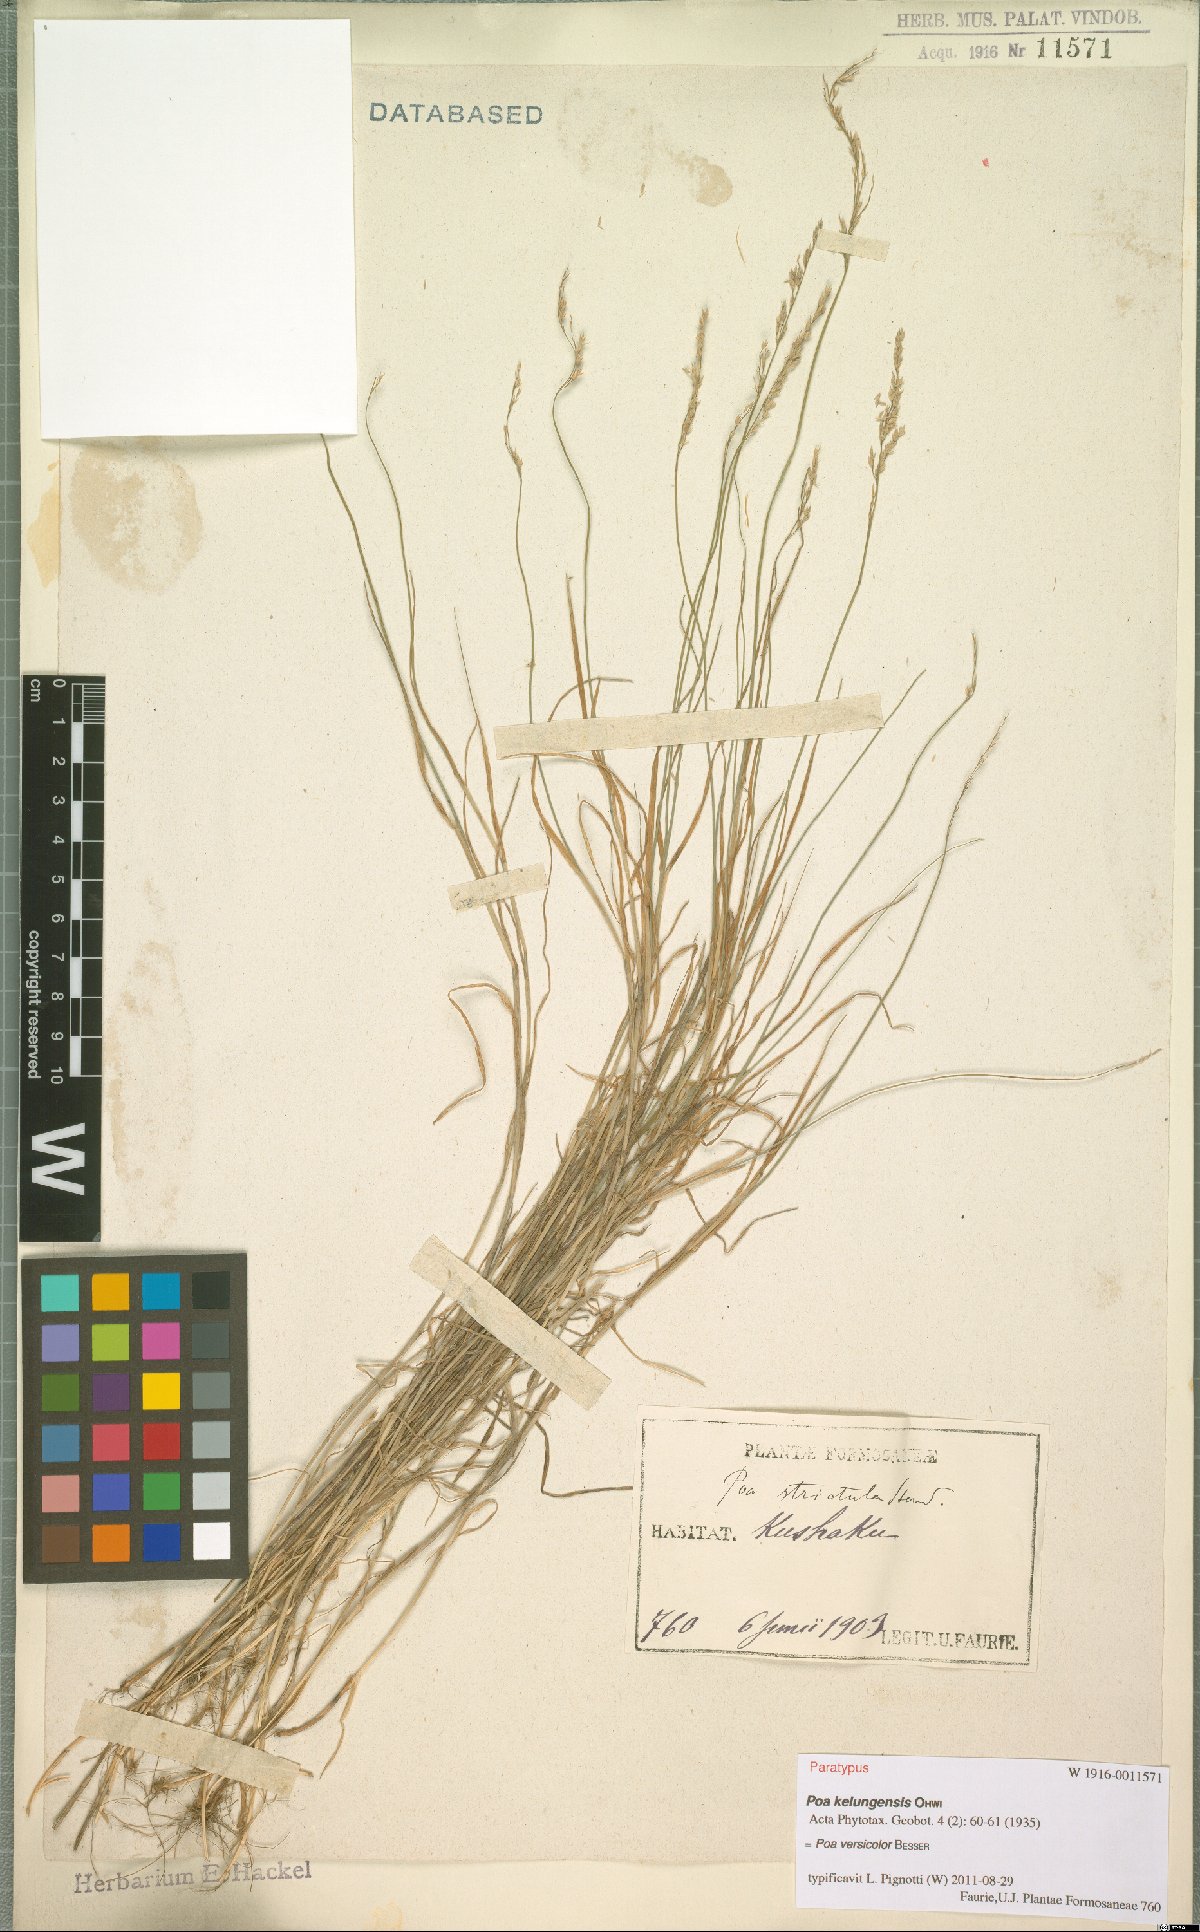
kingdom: Plantae
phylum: Tracheophyta
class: Liliopsida
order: Poales
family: Poaceae
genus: Poa
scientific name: Poa versicolor
